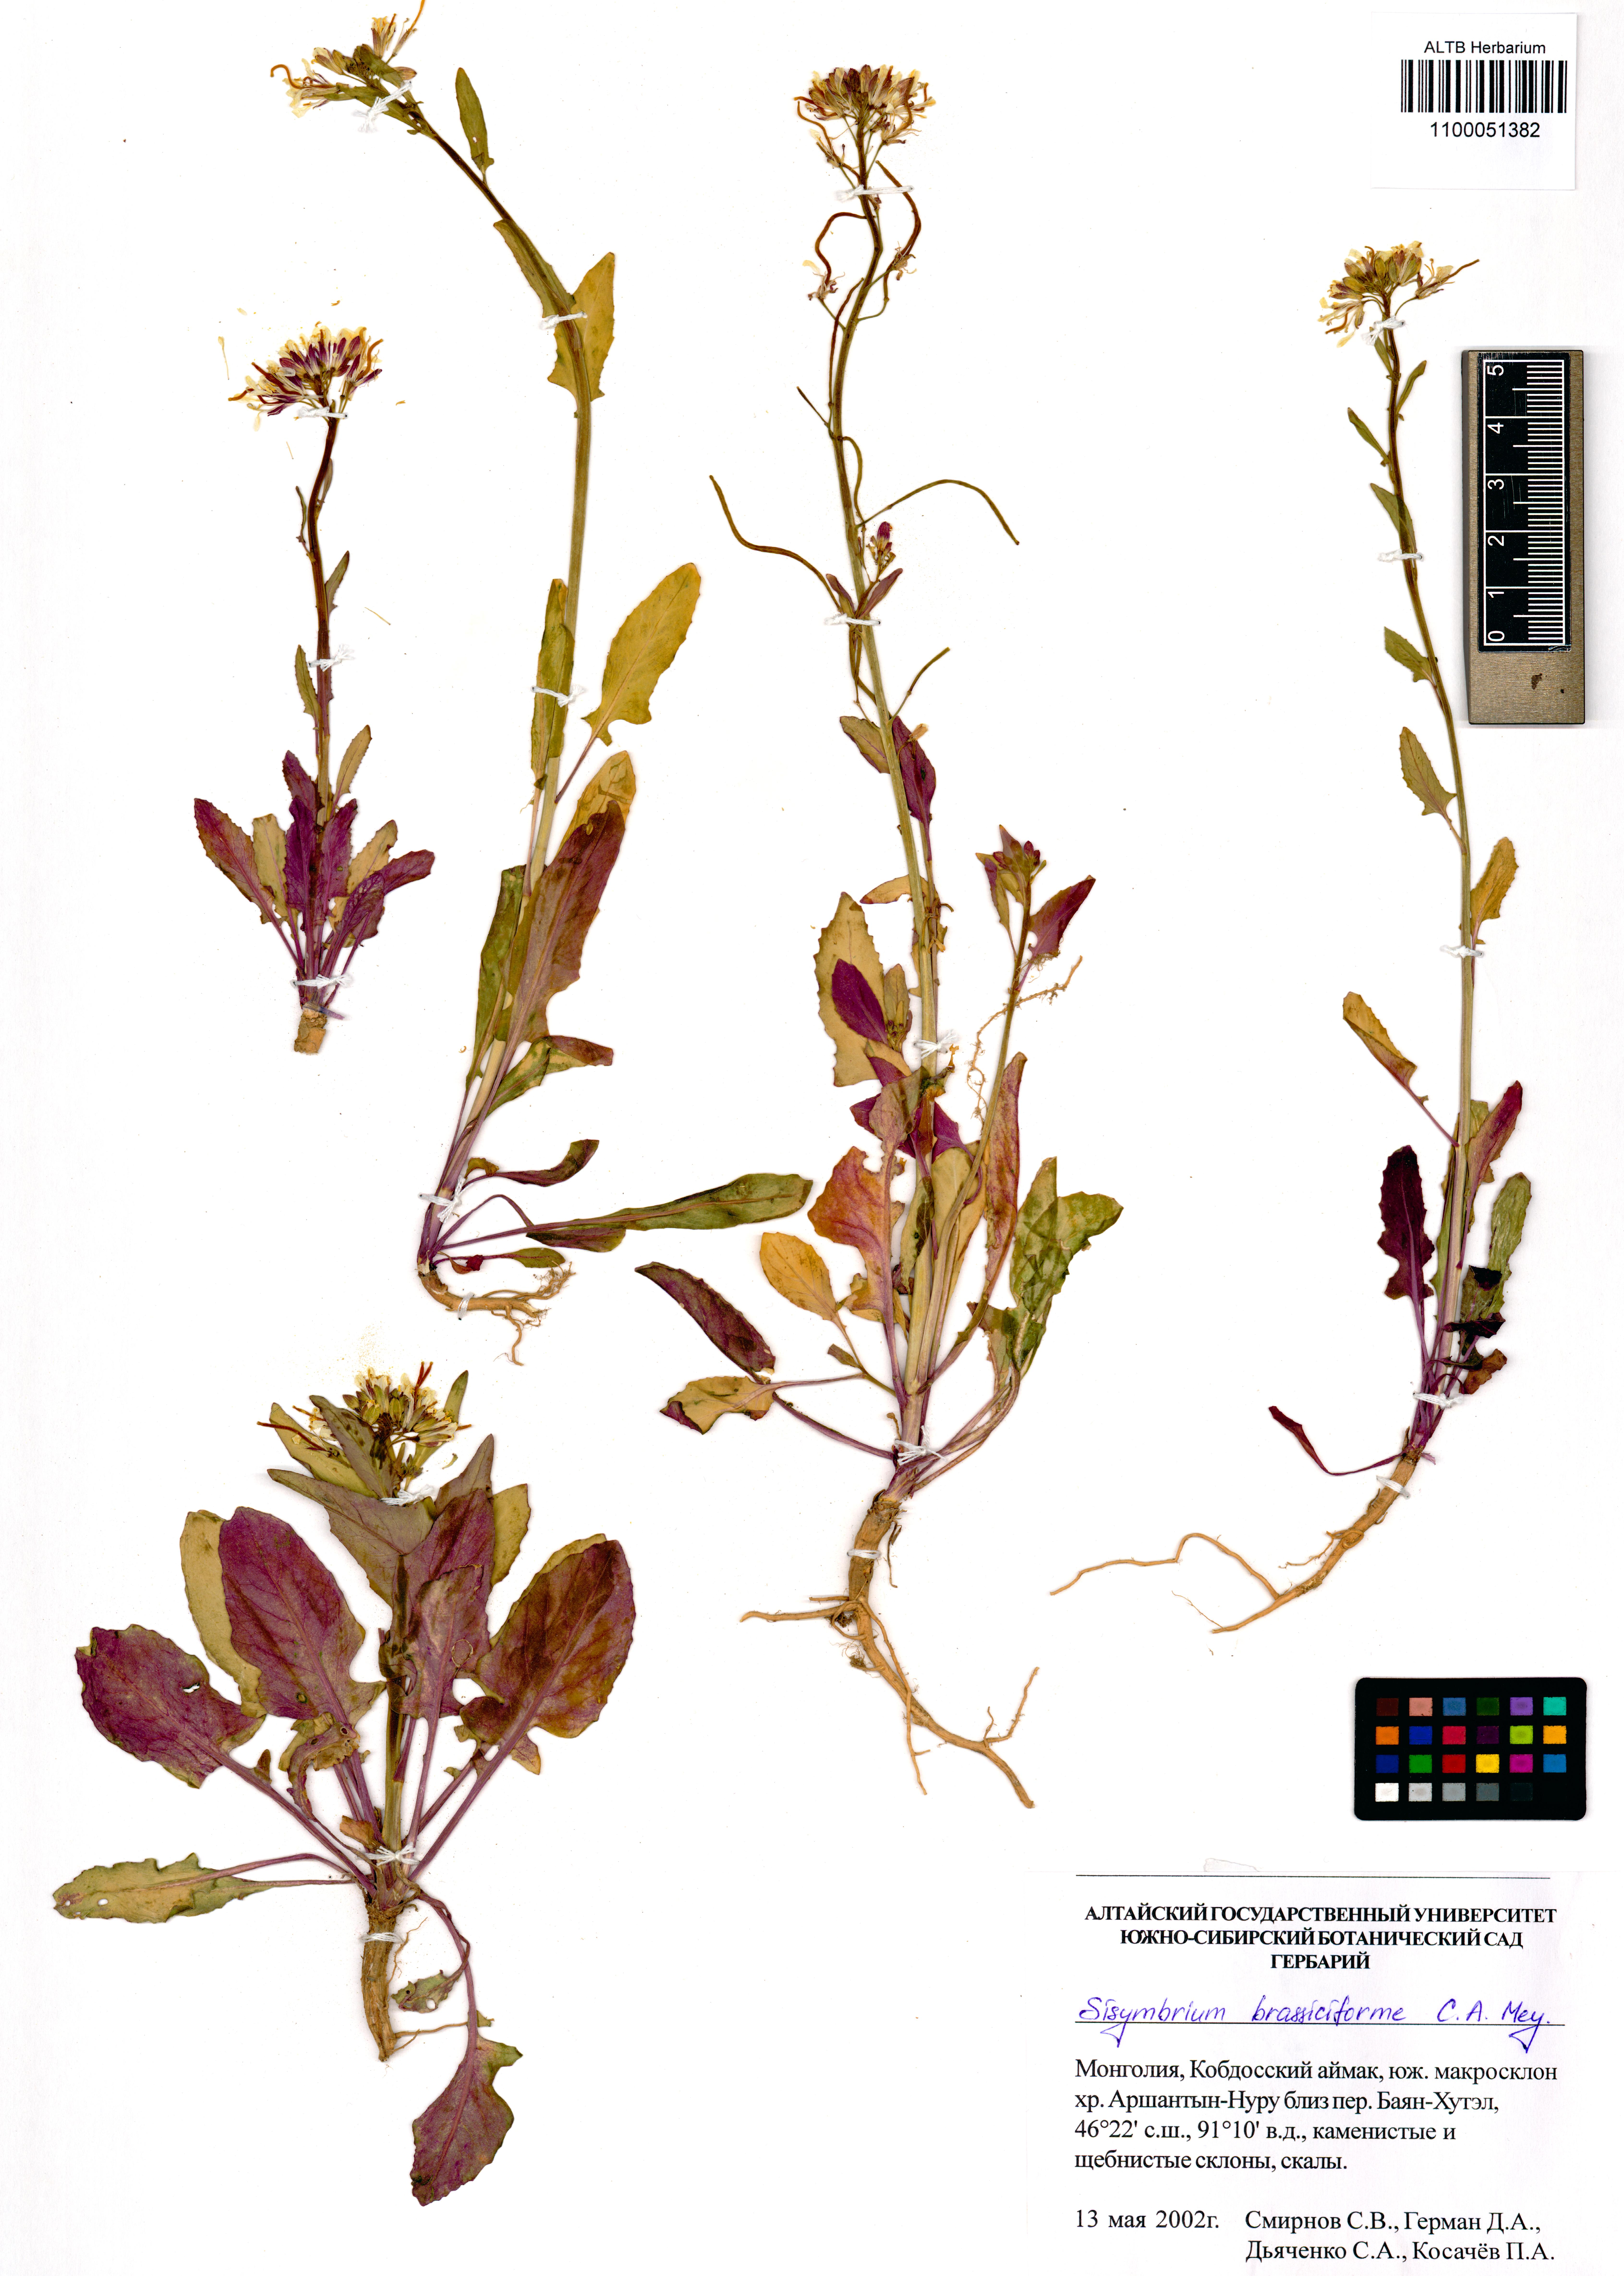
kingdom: Plantae
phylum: Tracheophyta
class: Magnoliopsida
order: Brassicales
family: Brassicaceae
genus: Sisymbrium
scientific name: Sisymbrium brassiciforme
